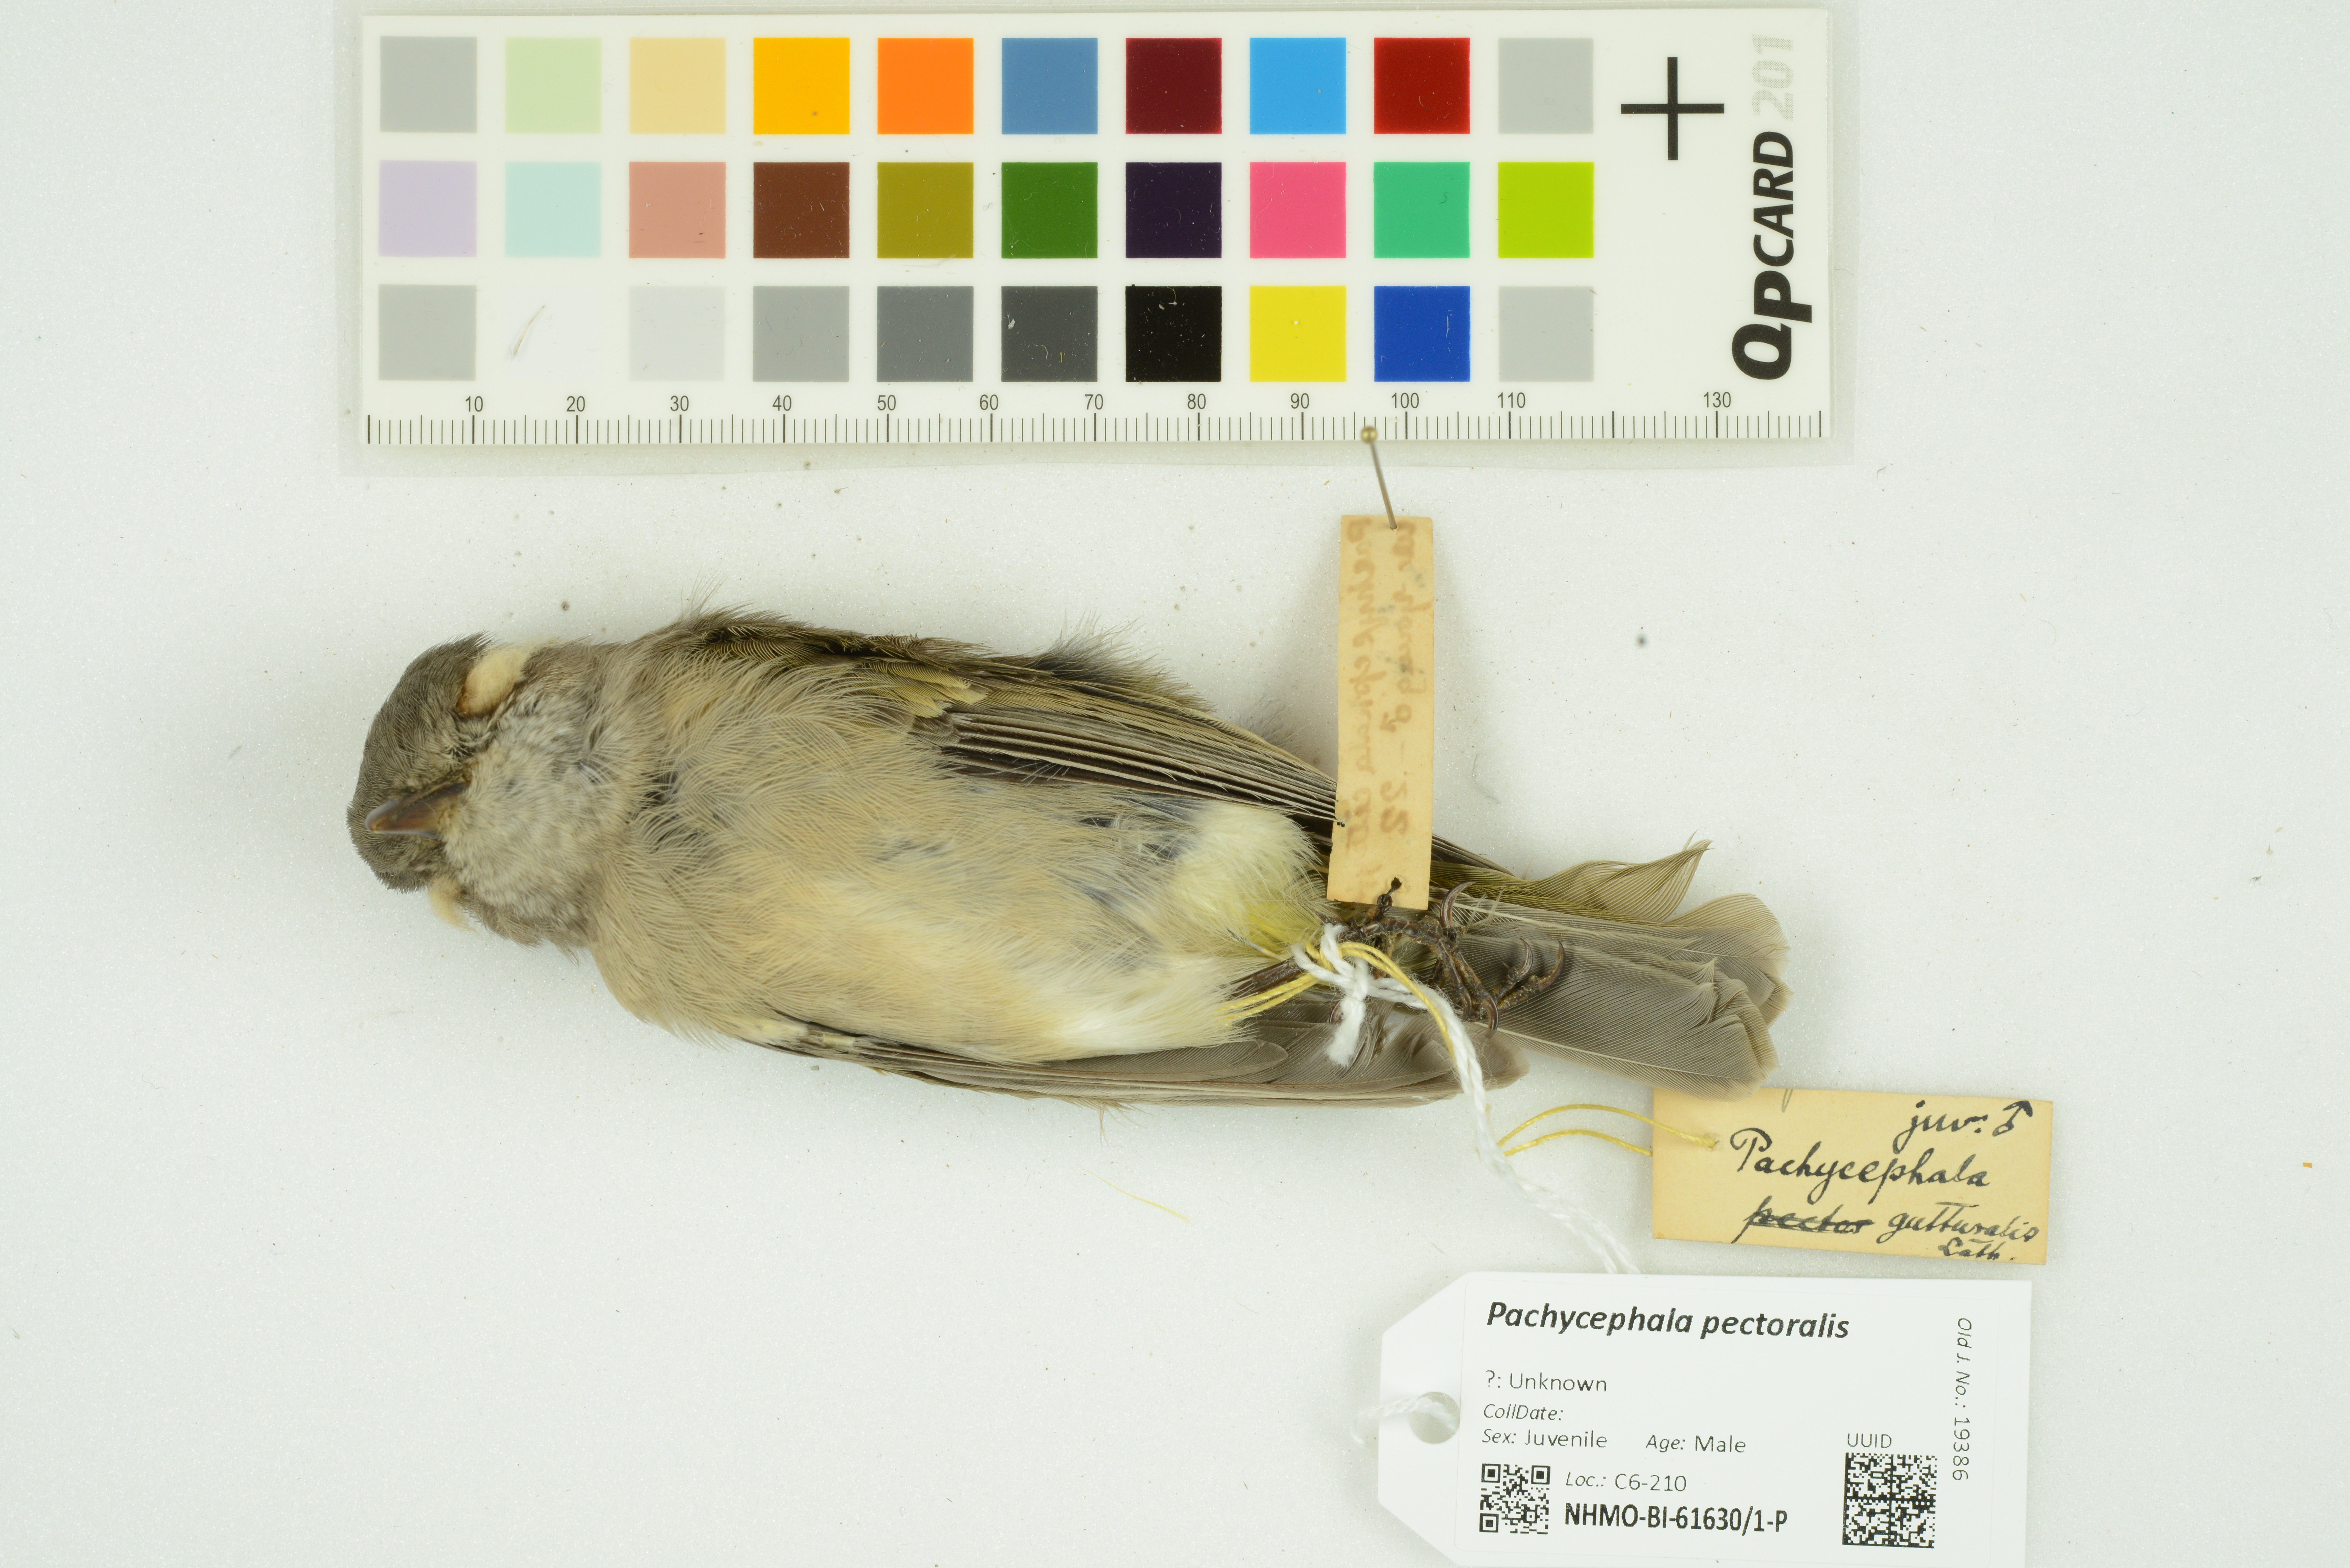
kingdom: Animalia
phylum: Chordata
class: Aves
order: Passeriformes
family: Pachycephalidae
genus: Pachycephala
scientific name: Pachycephala pectoralis
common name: Australian golden whistler
